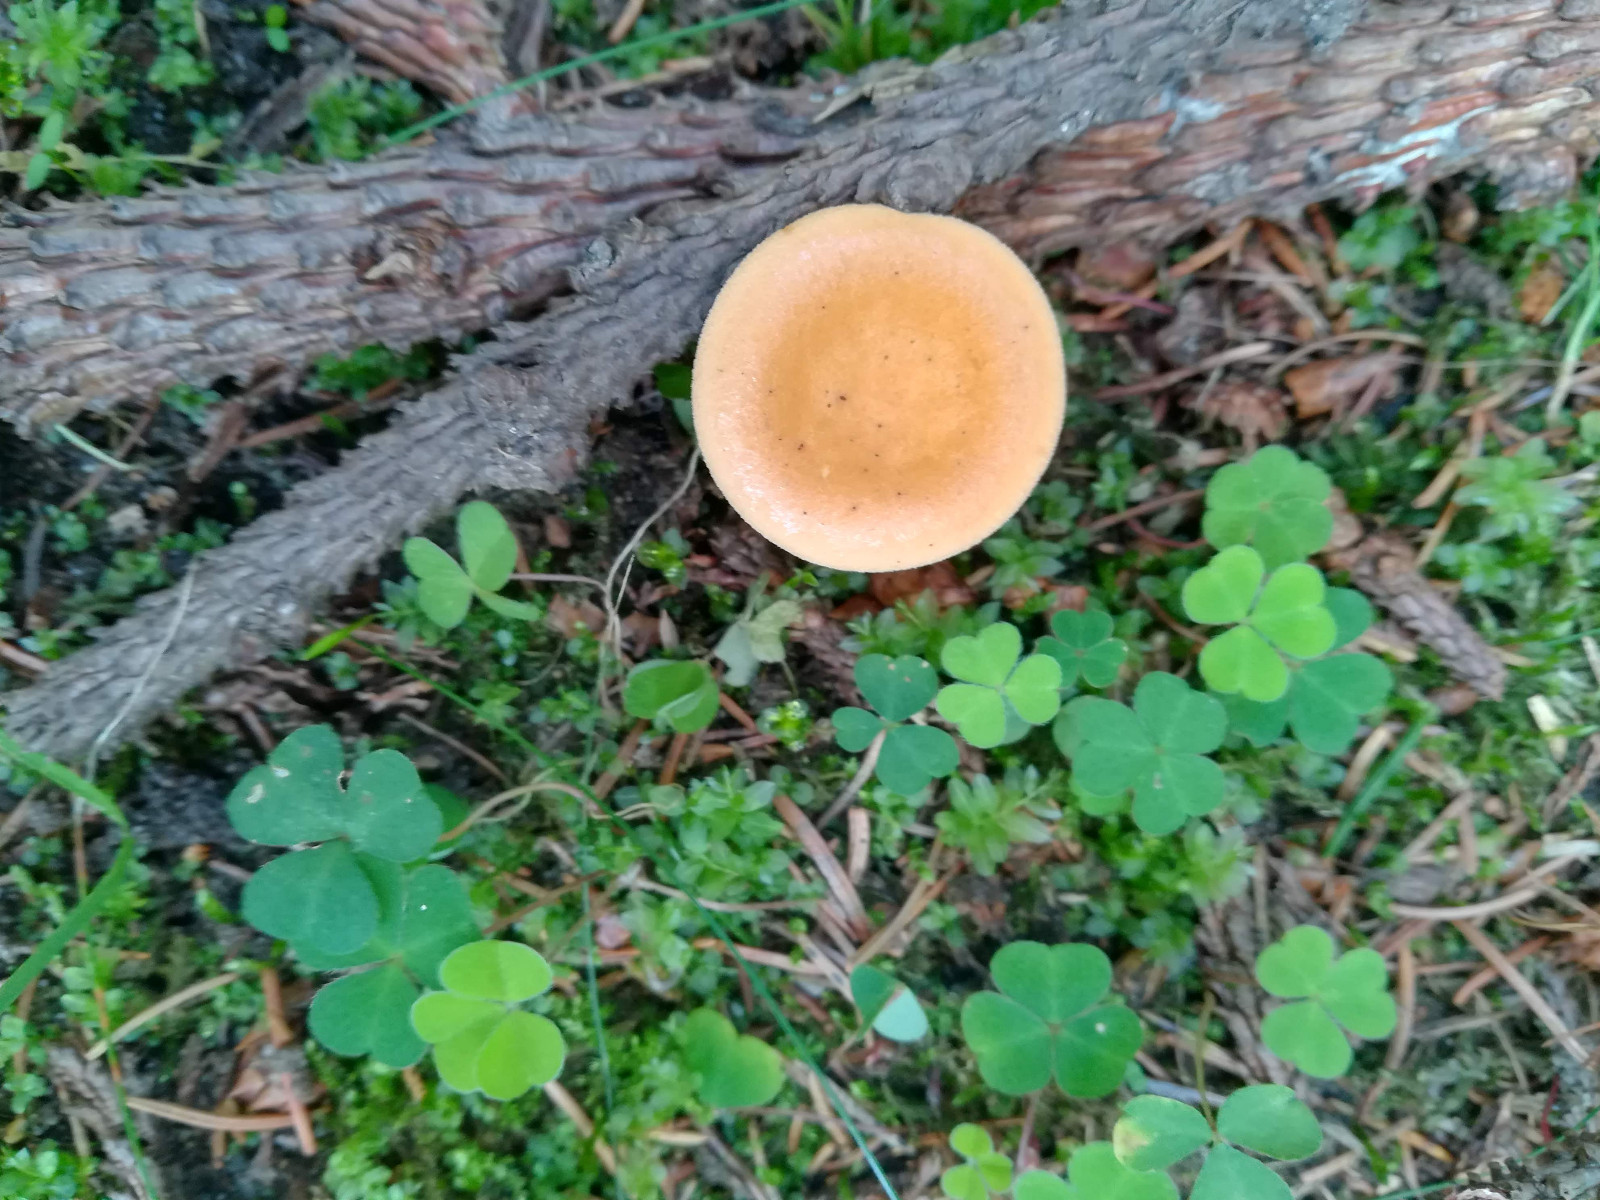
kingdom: Fungi
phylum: Basidiomycota
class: Agaricomycetes
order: Boletales
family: Hygrophoropsidaceae
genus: Hygrophoropsis
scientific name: Hygrophoropsis aurantiaca
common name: almindelig orangekantarel
